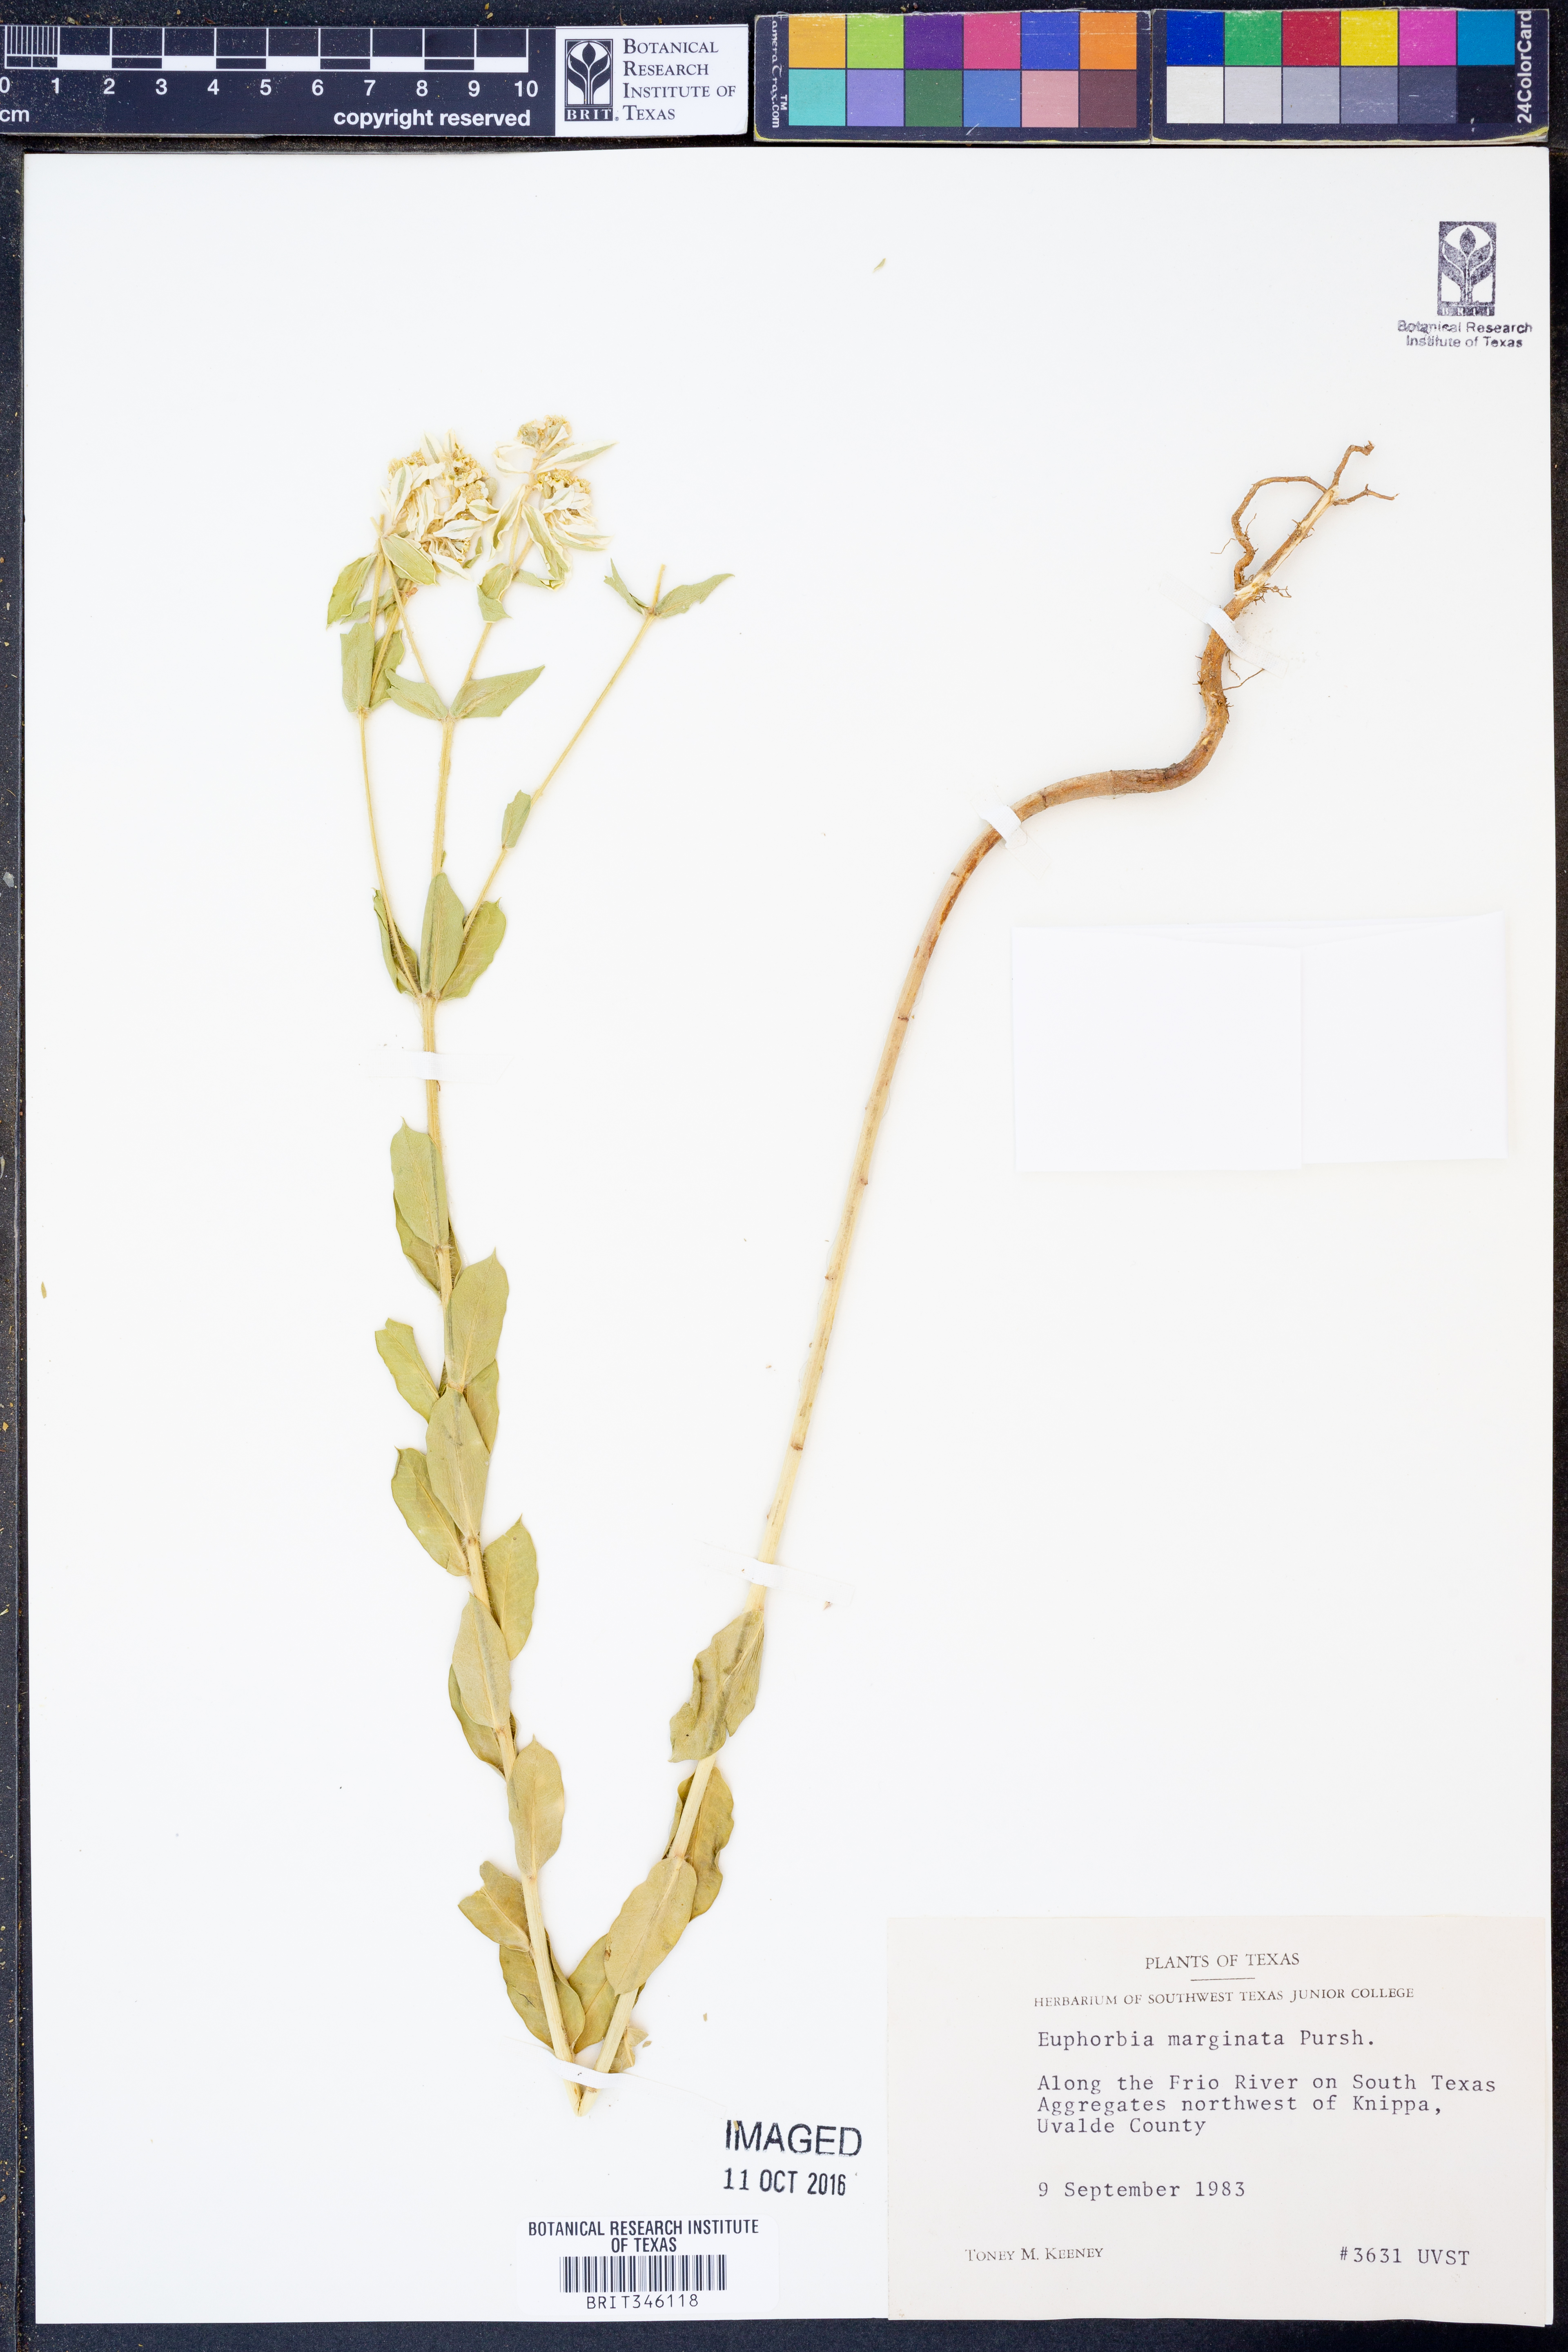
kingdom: Plantae
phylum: Tracheophyta
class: Magnoliopsida
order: Malpighiales
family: Euphorbiaceae
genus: Euphorbia
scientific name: Euphorbia marginata
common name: Ghostweed
